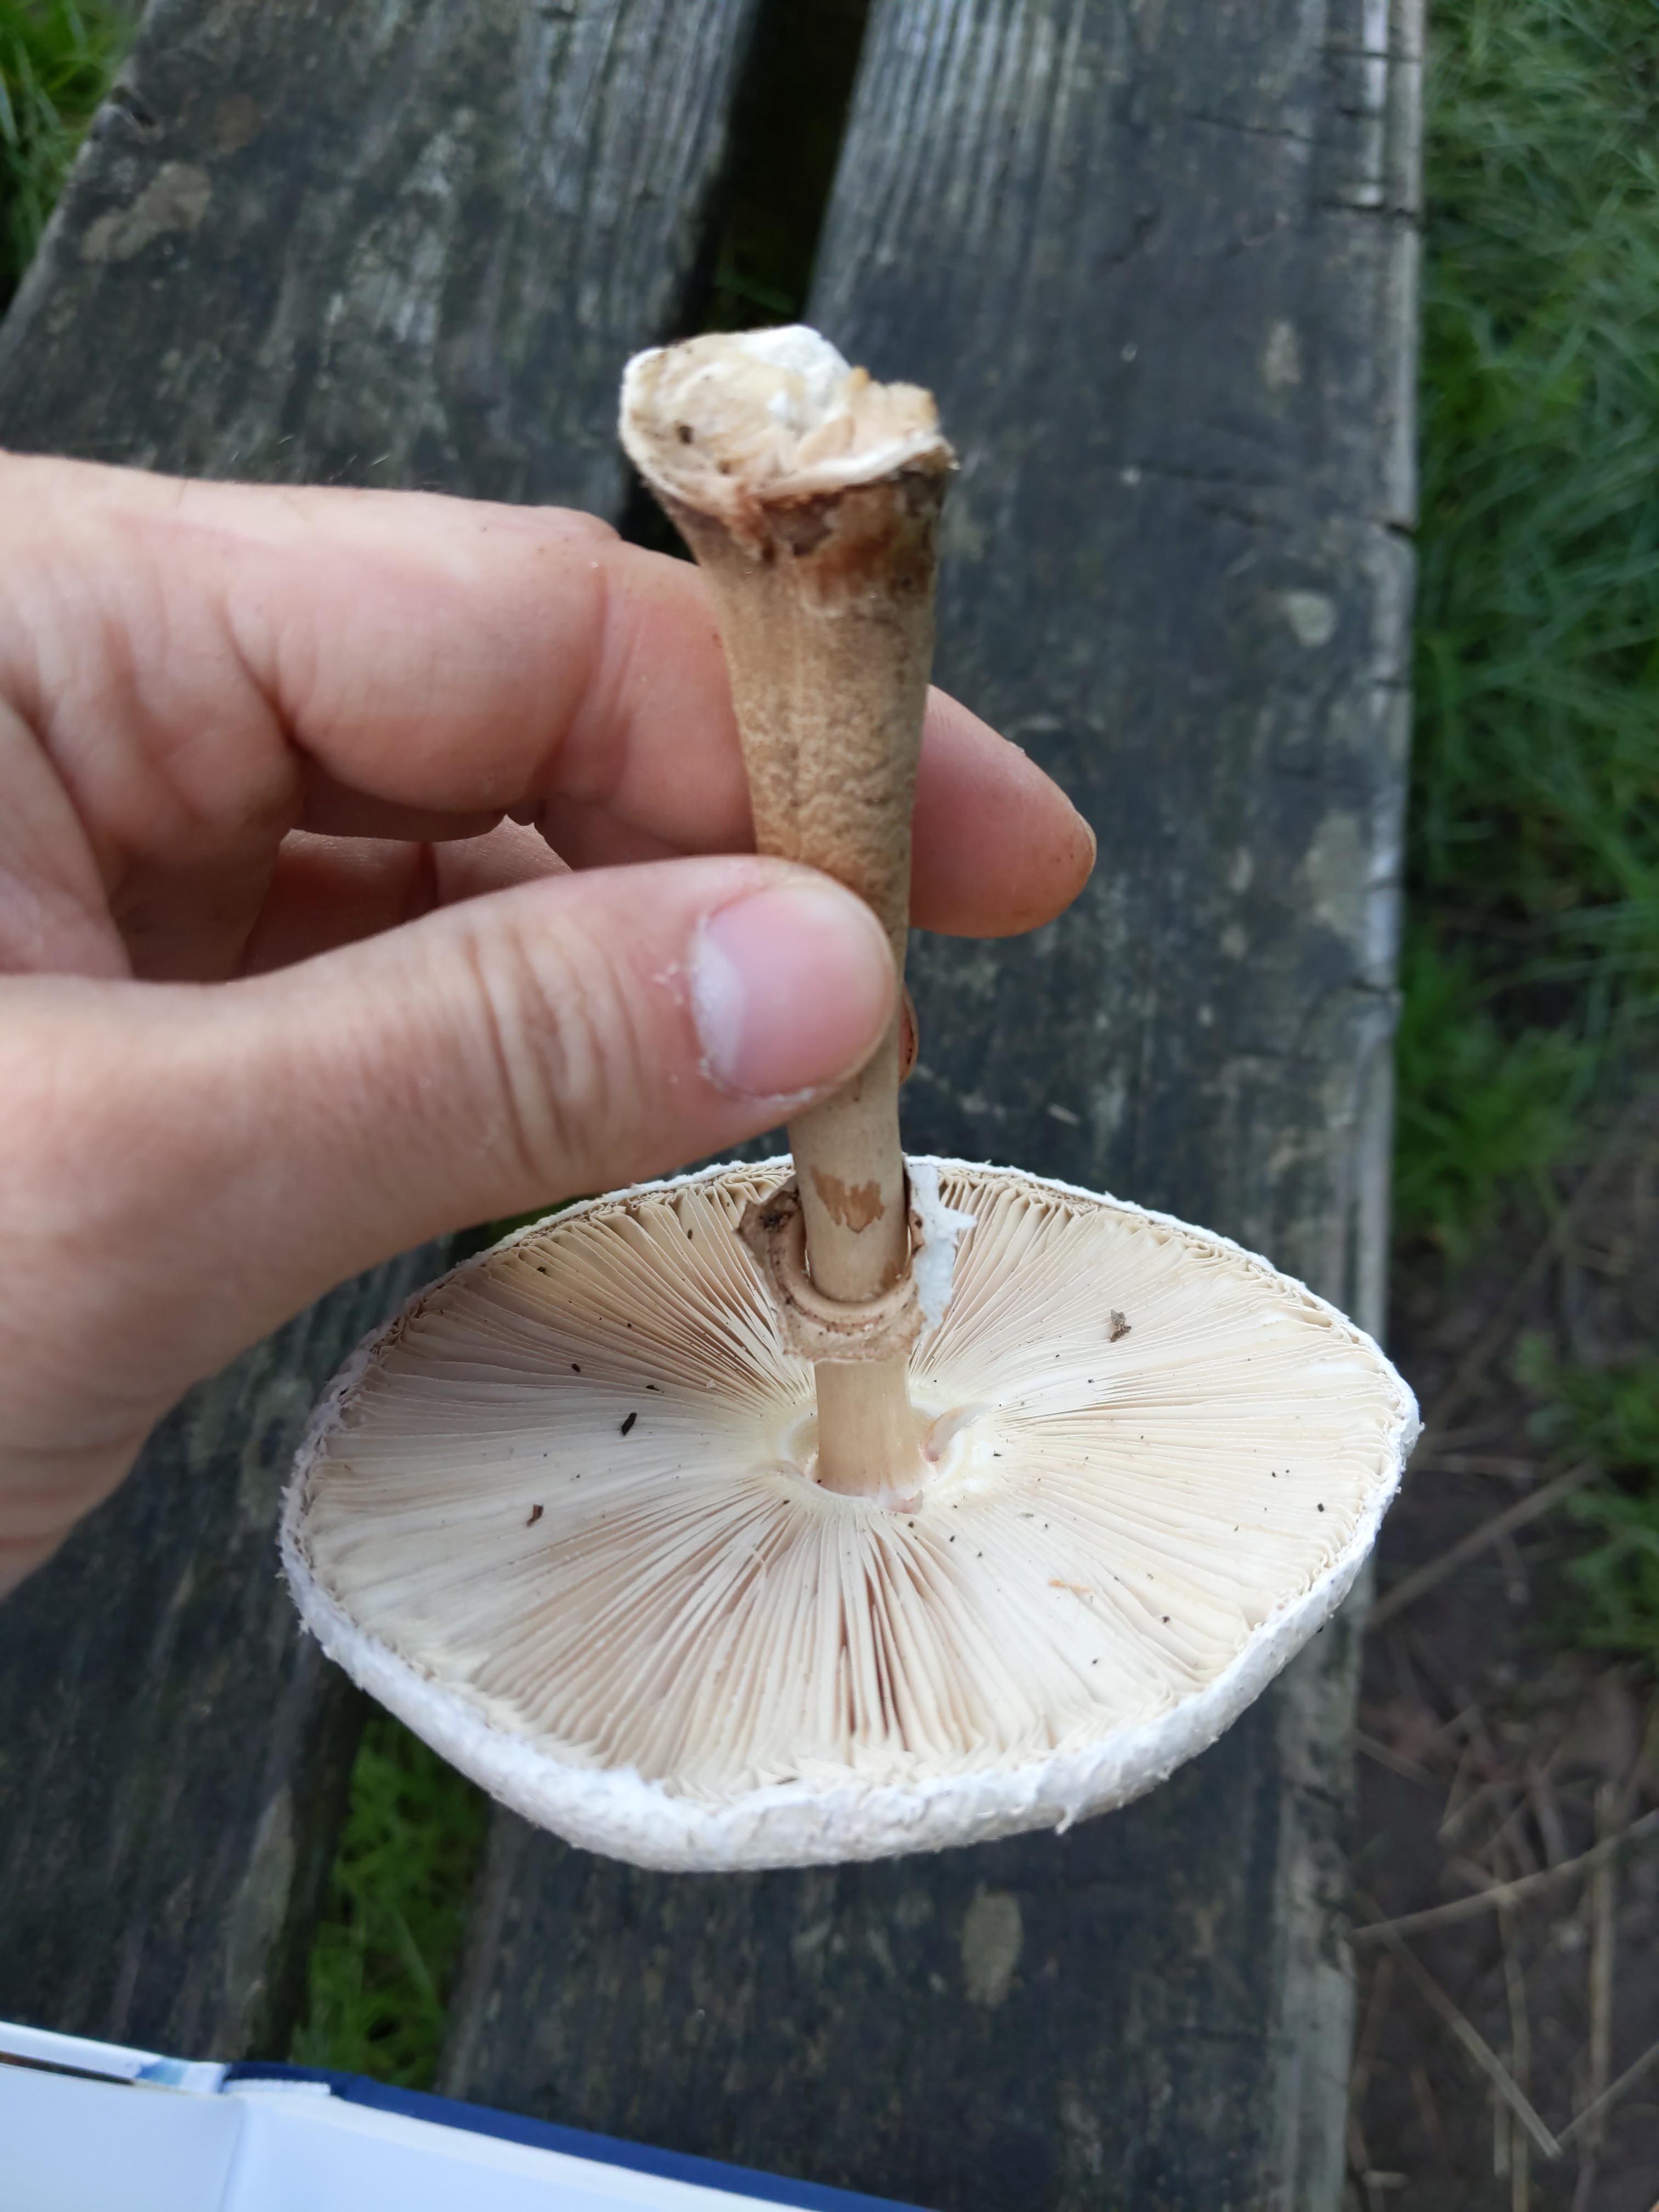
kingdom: Fungi
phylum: Basidiomycota
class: Agaricomycetes
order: Agaricales
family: Agaricaceae
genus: Macrolepiota
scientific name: Macrolepiota mastoidea
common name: puklet kæmpeparasolhat
